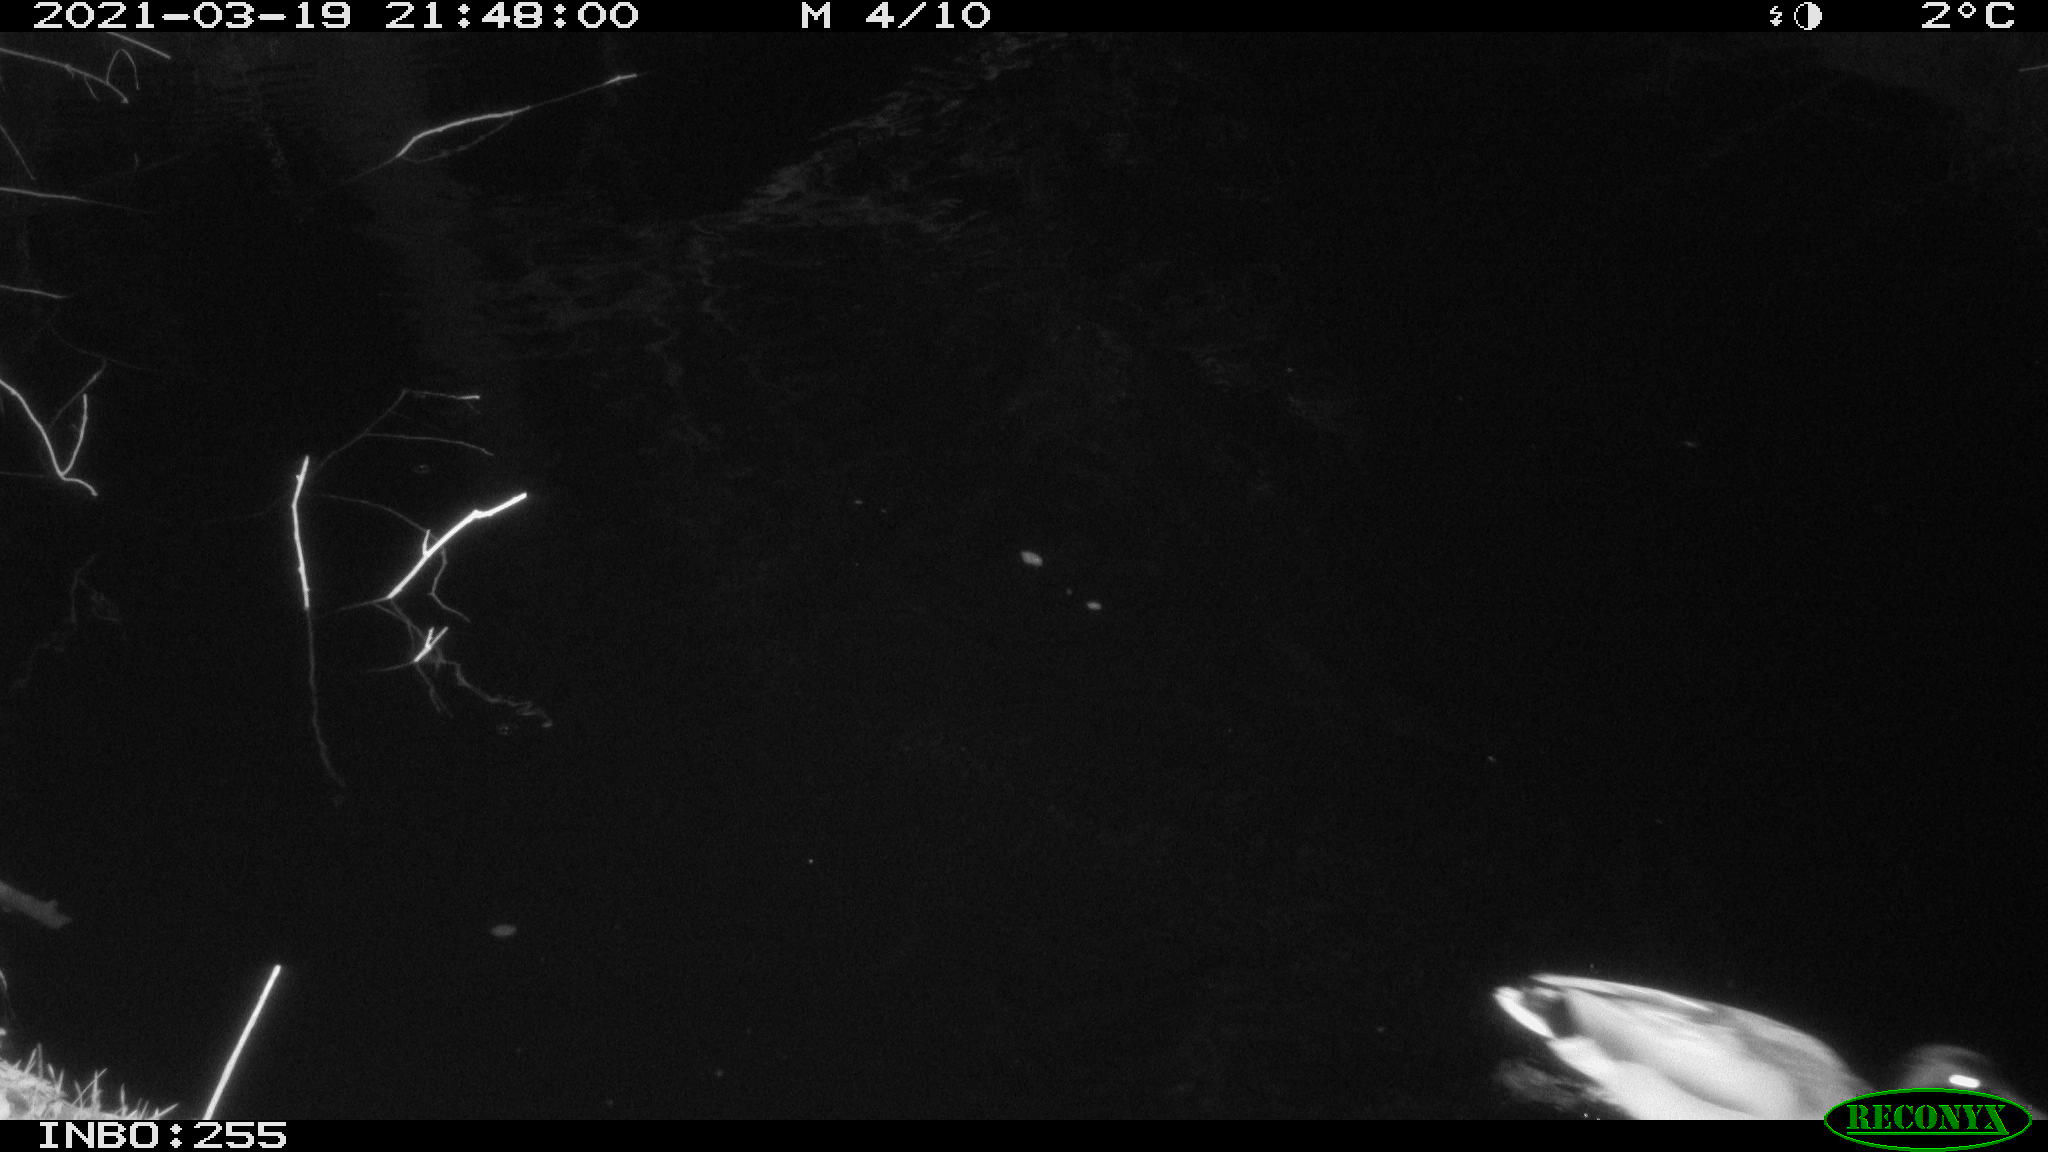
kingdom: Animalia
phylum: Chordata
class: Aves
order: Anseriformes
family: Anatidae
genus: Anas
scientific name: Anas platyrhynchos
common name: Mallard
